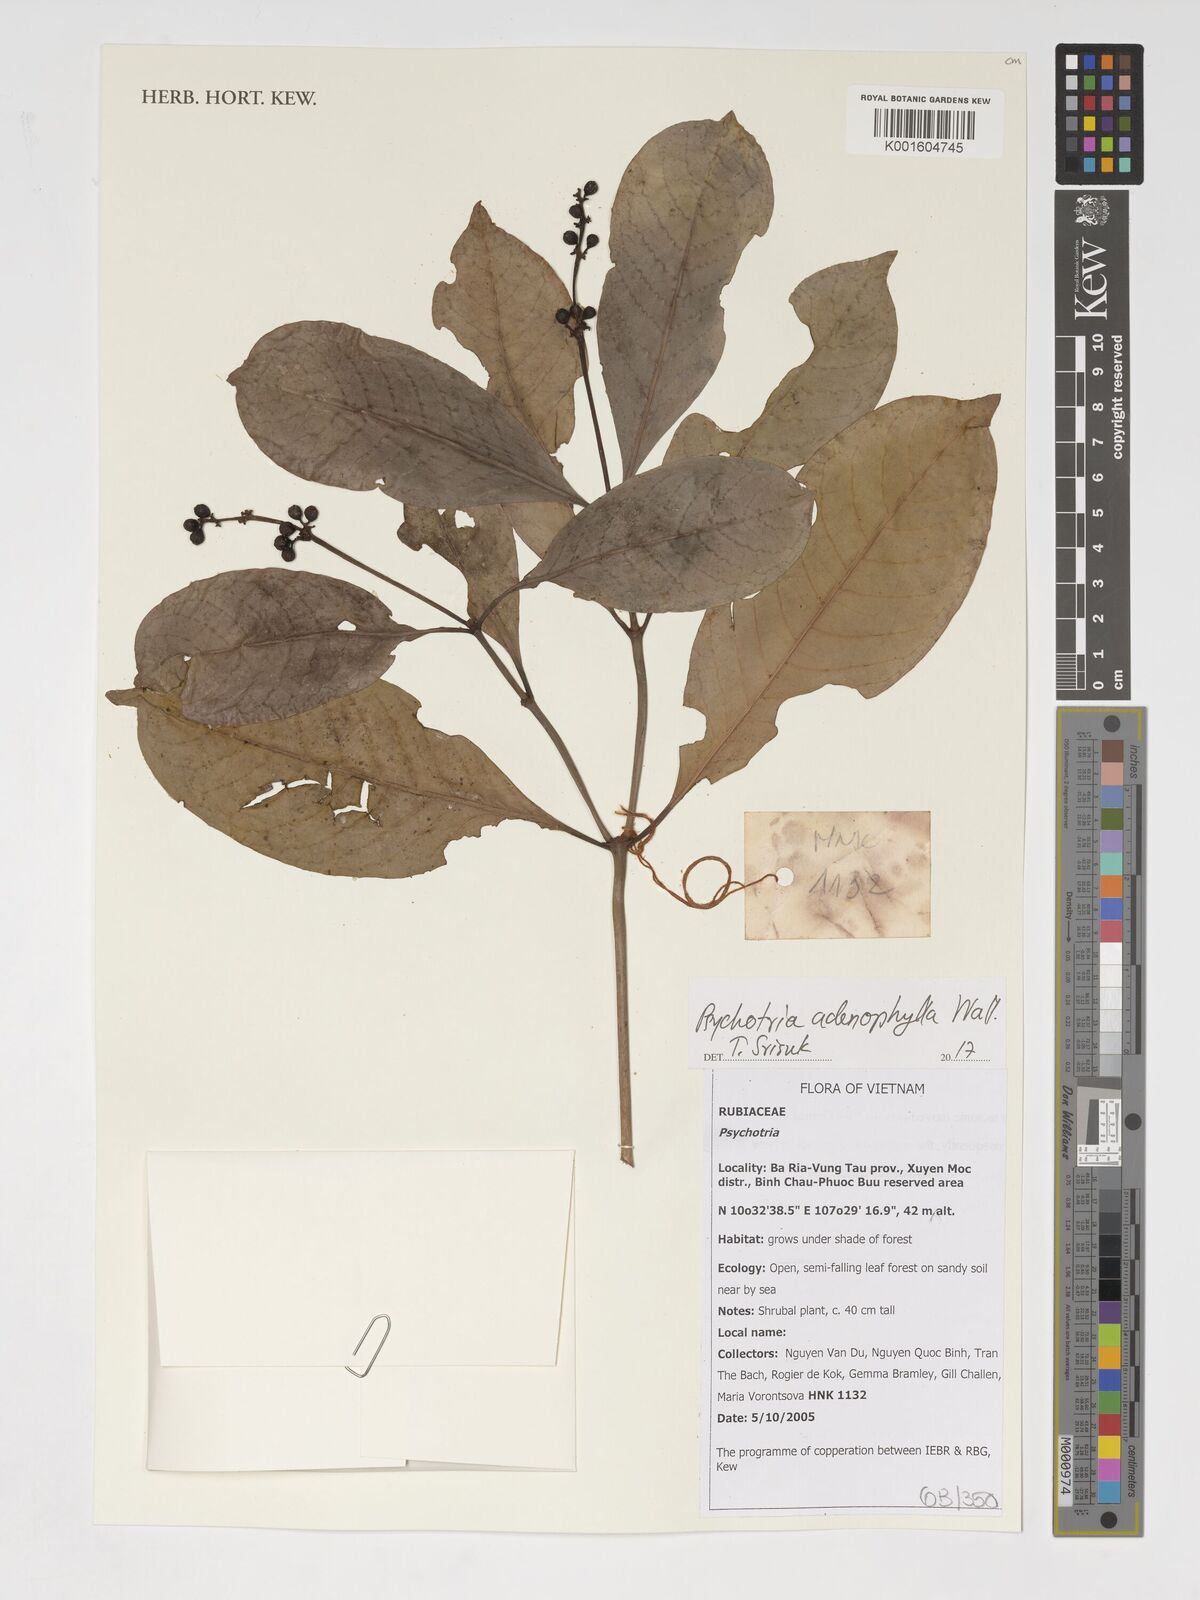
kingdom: Plantae
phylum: Tracheophyta
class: Magnoliopsida
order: Gentianales
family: Rubiaceae
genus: Psychotria
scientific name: Psychotria
